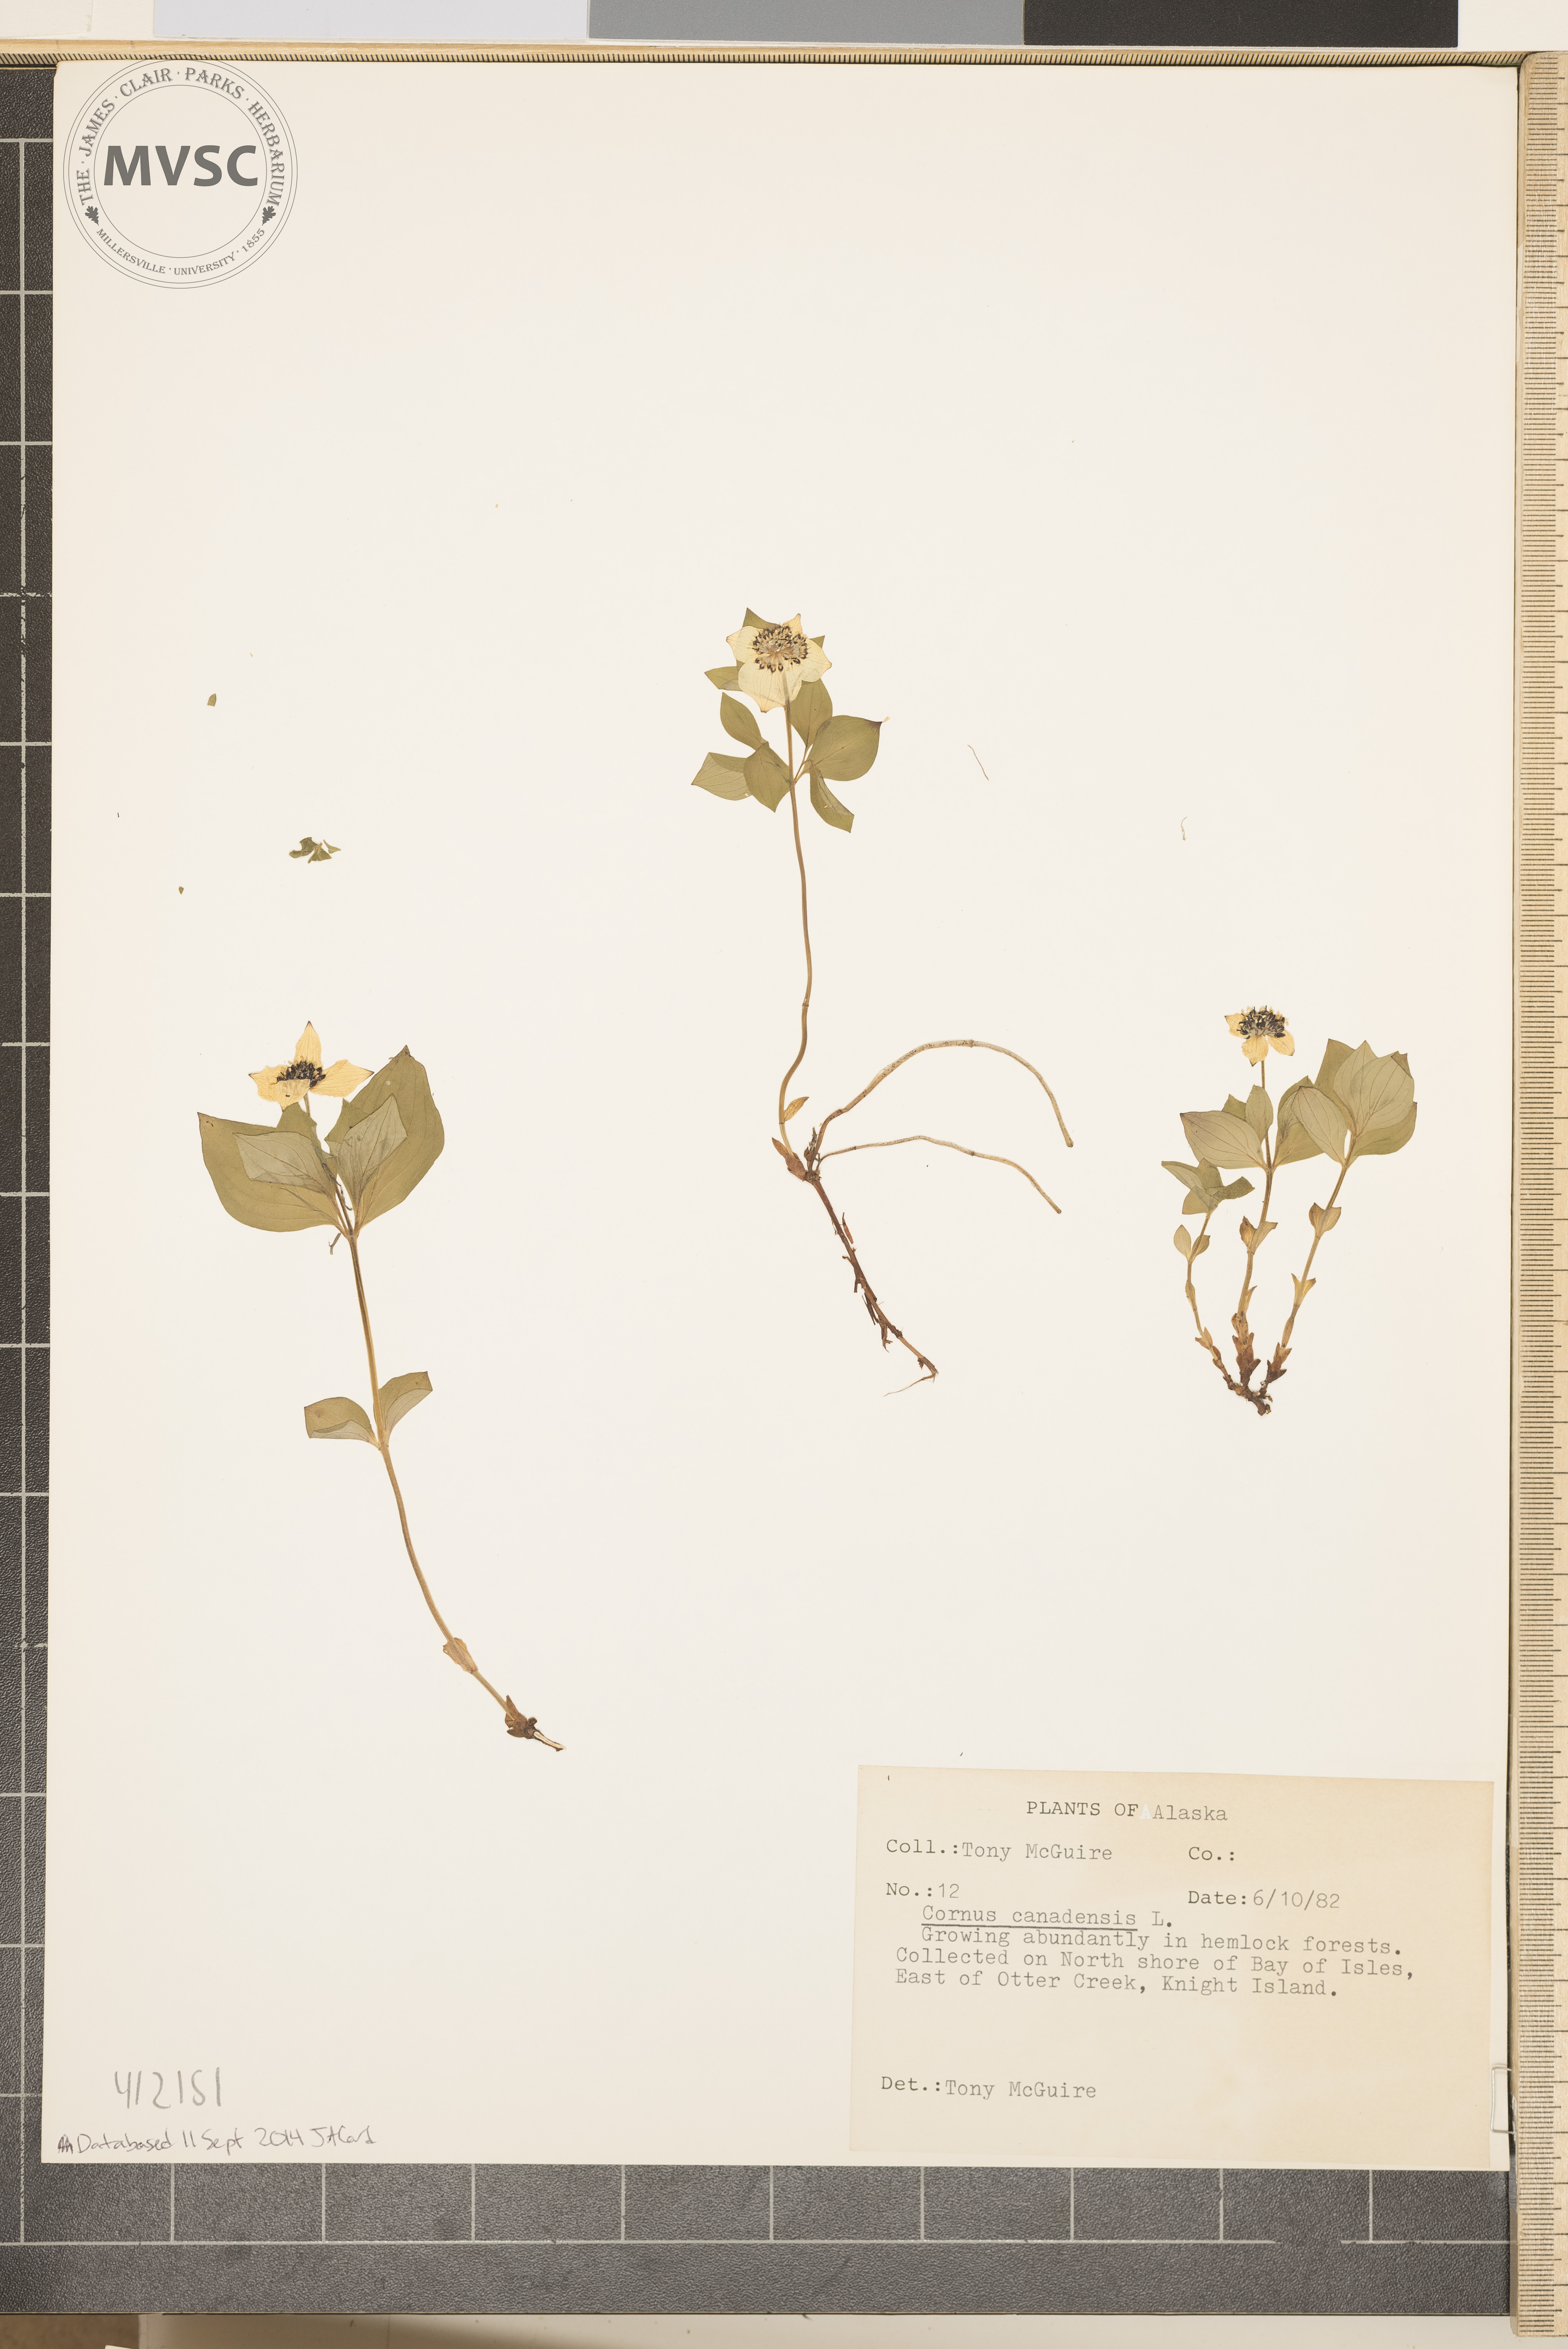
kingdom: Plantae
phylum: Tracheophyta
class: Magnoliopsida
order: Cornales
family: Cornaceae
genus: Cornus
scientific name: Cornus canadensis
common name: Creeping dogwood
